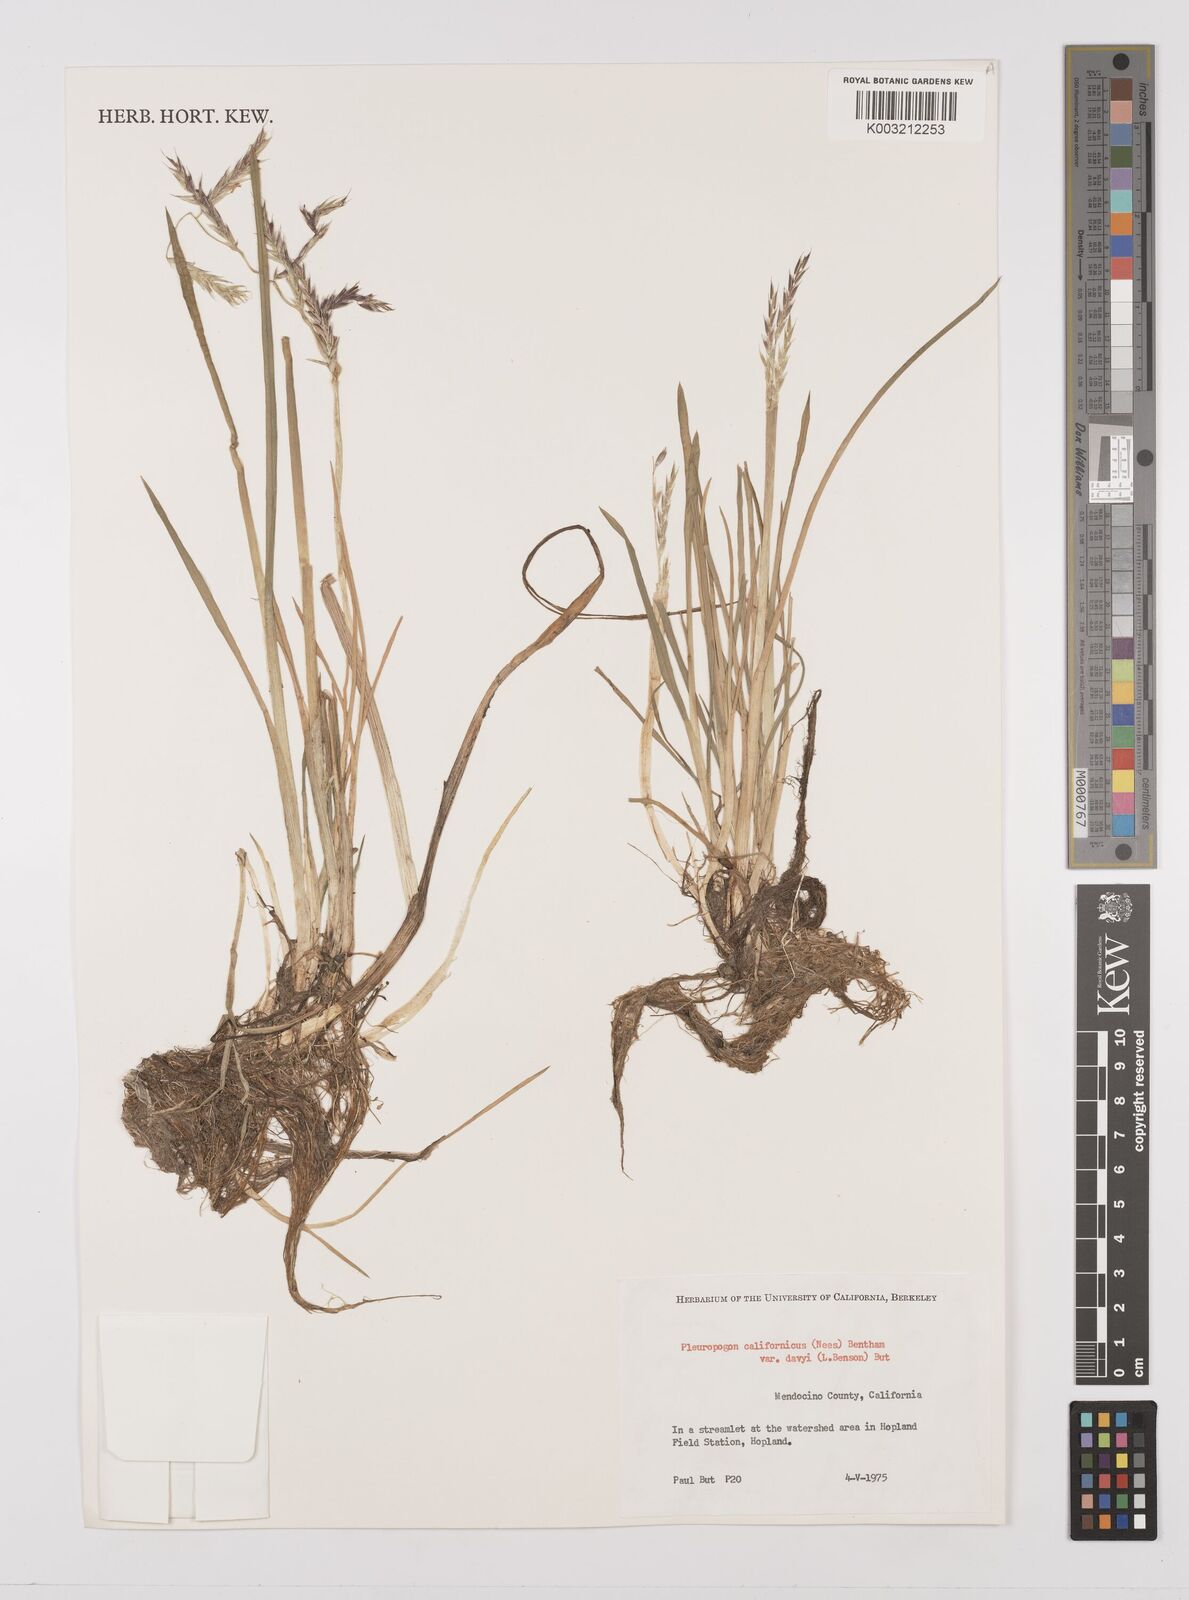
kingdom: Plantae
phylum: Tracheophyta
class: Liliopsida
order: Poales
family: Poaceae
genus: Pleuropogon
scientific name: Pleuropogon californicus
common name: California semaphore grass
